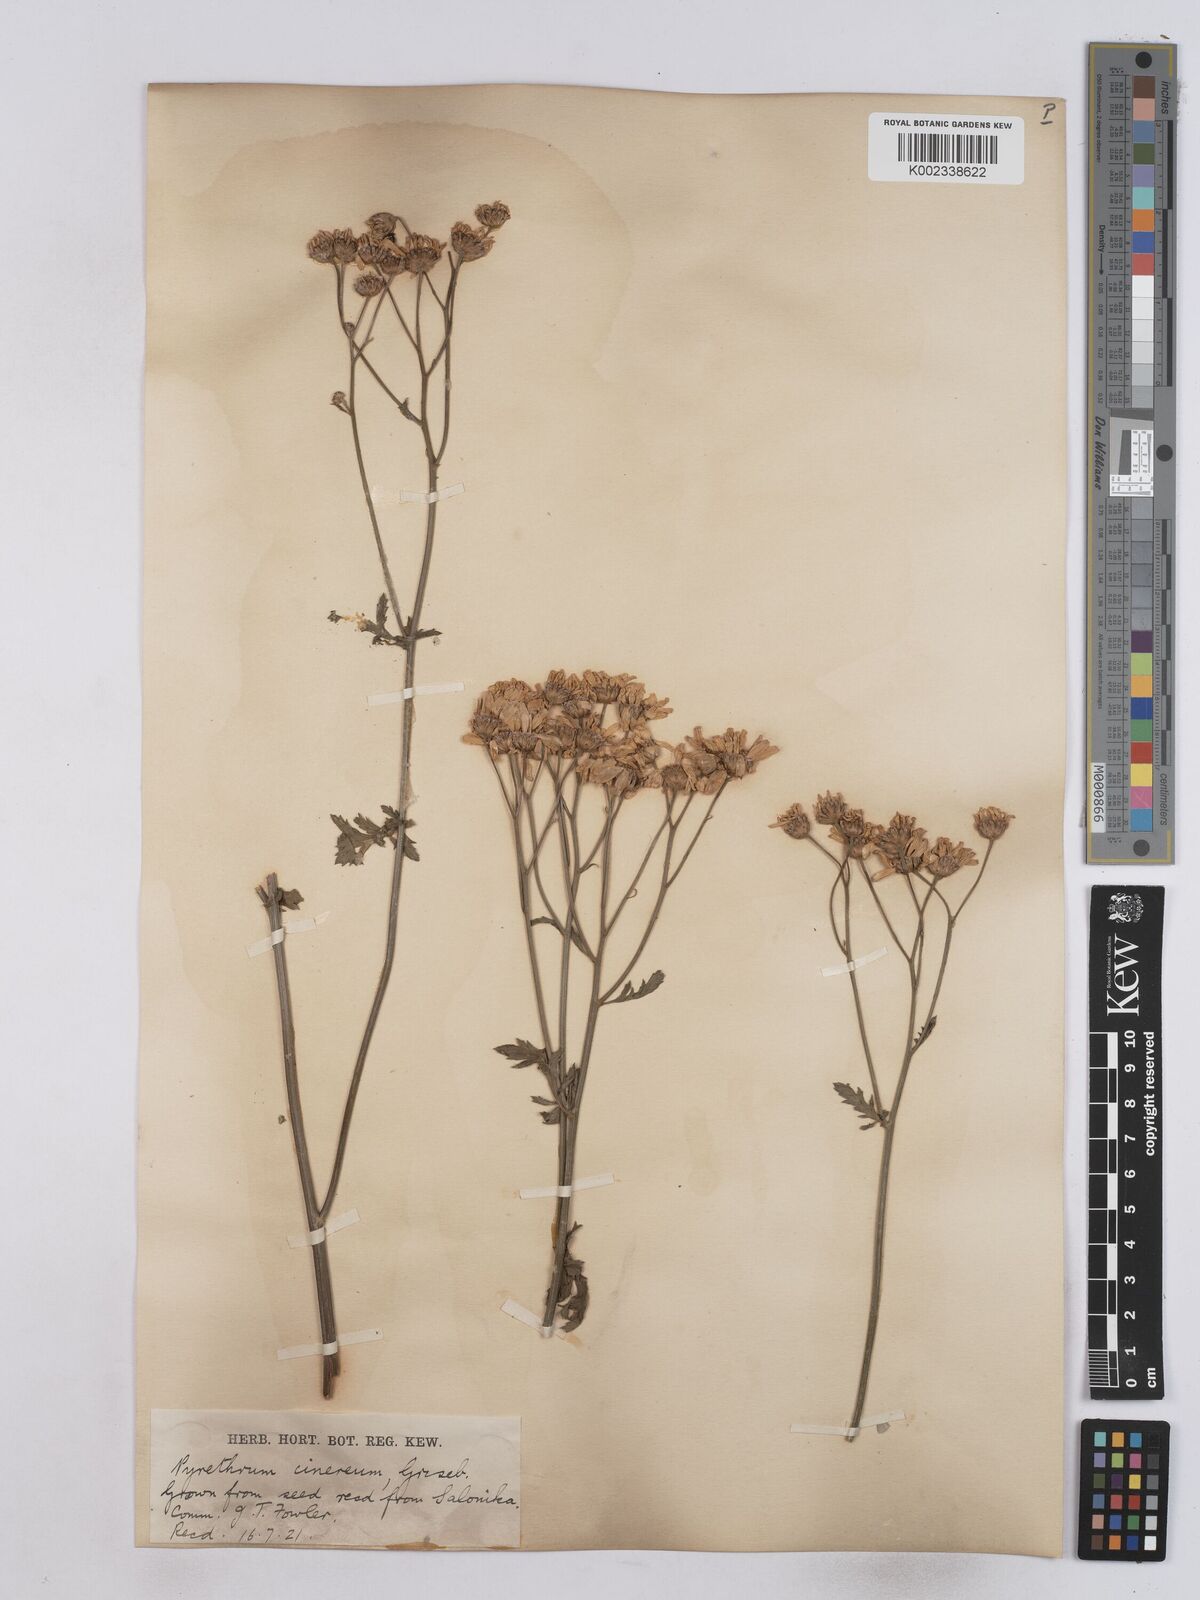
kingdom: Plantae
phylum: Tracheophyta
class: Magnoliopsida
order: Asterales
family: Asteraceae
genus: Tanacetum
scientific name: Tanacetum corymbosum
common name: Scentless feverfew
